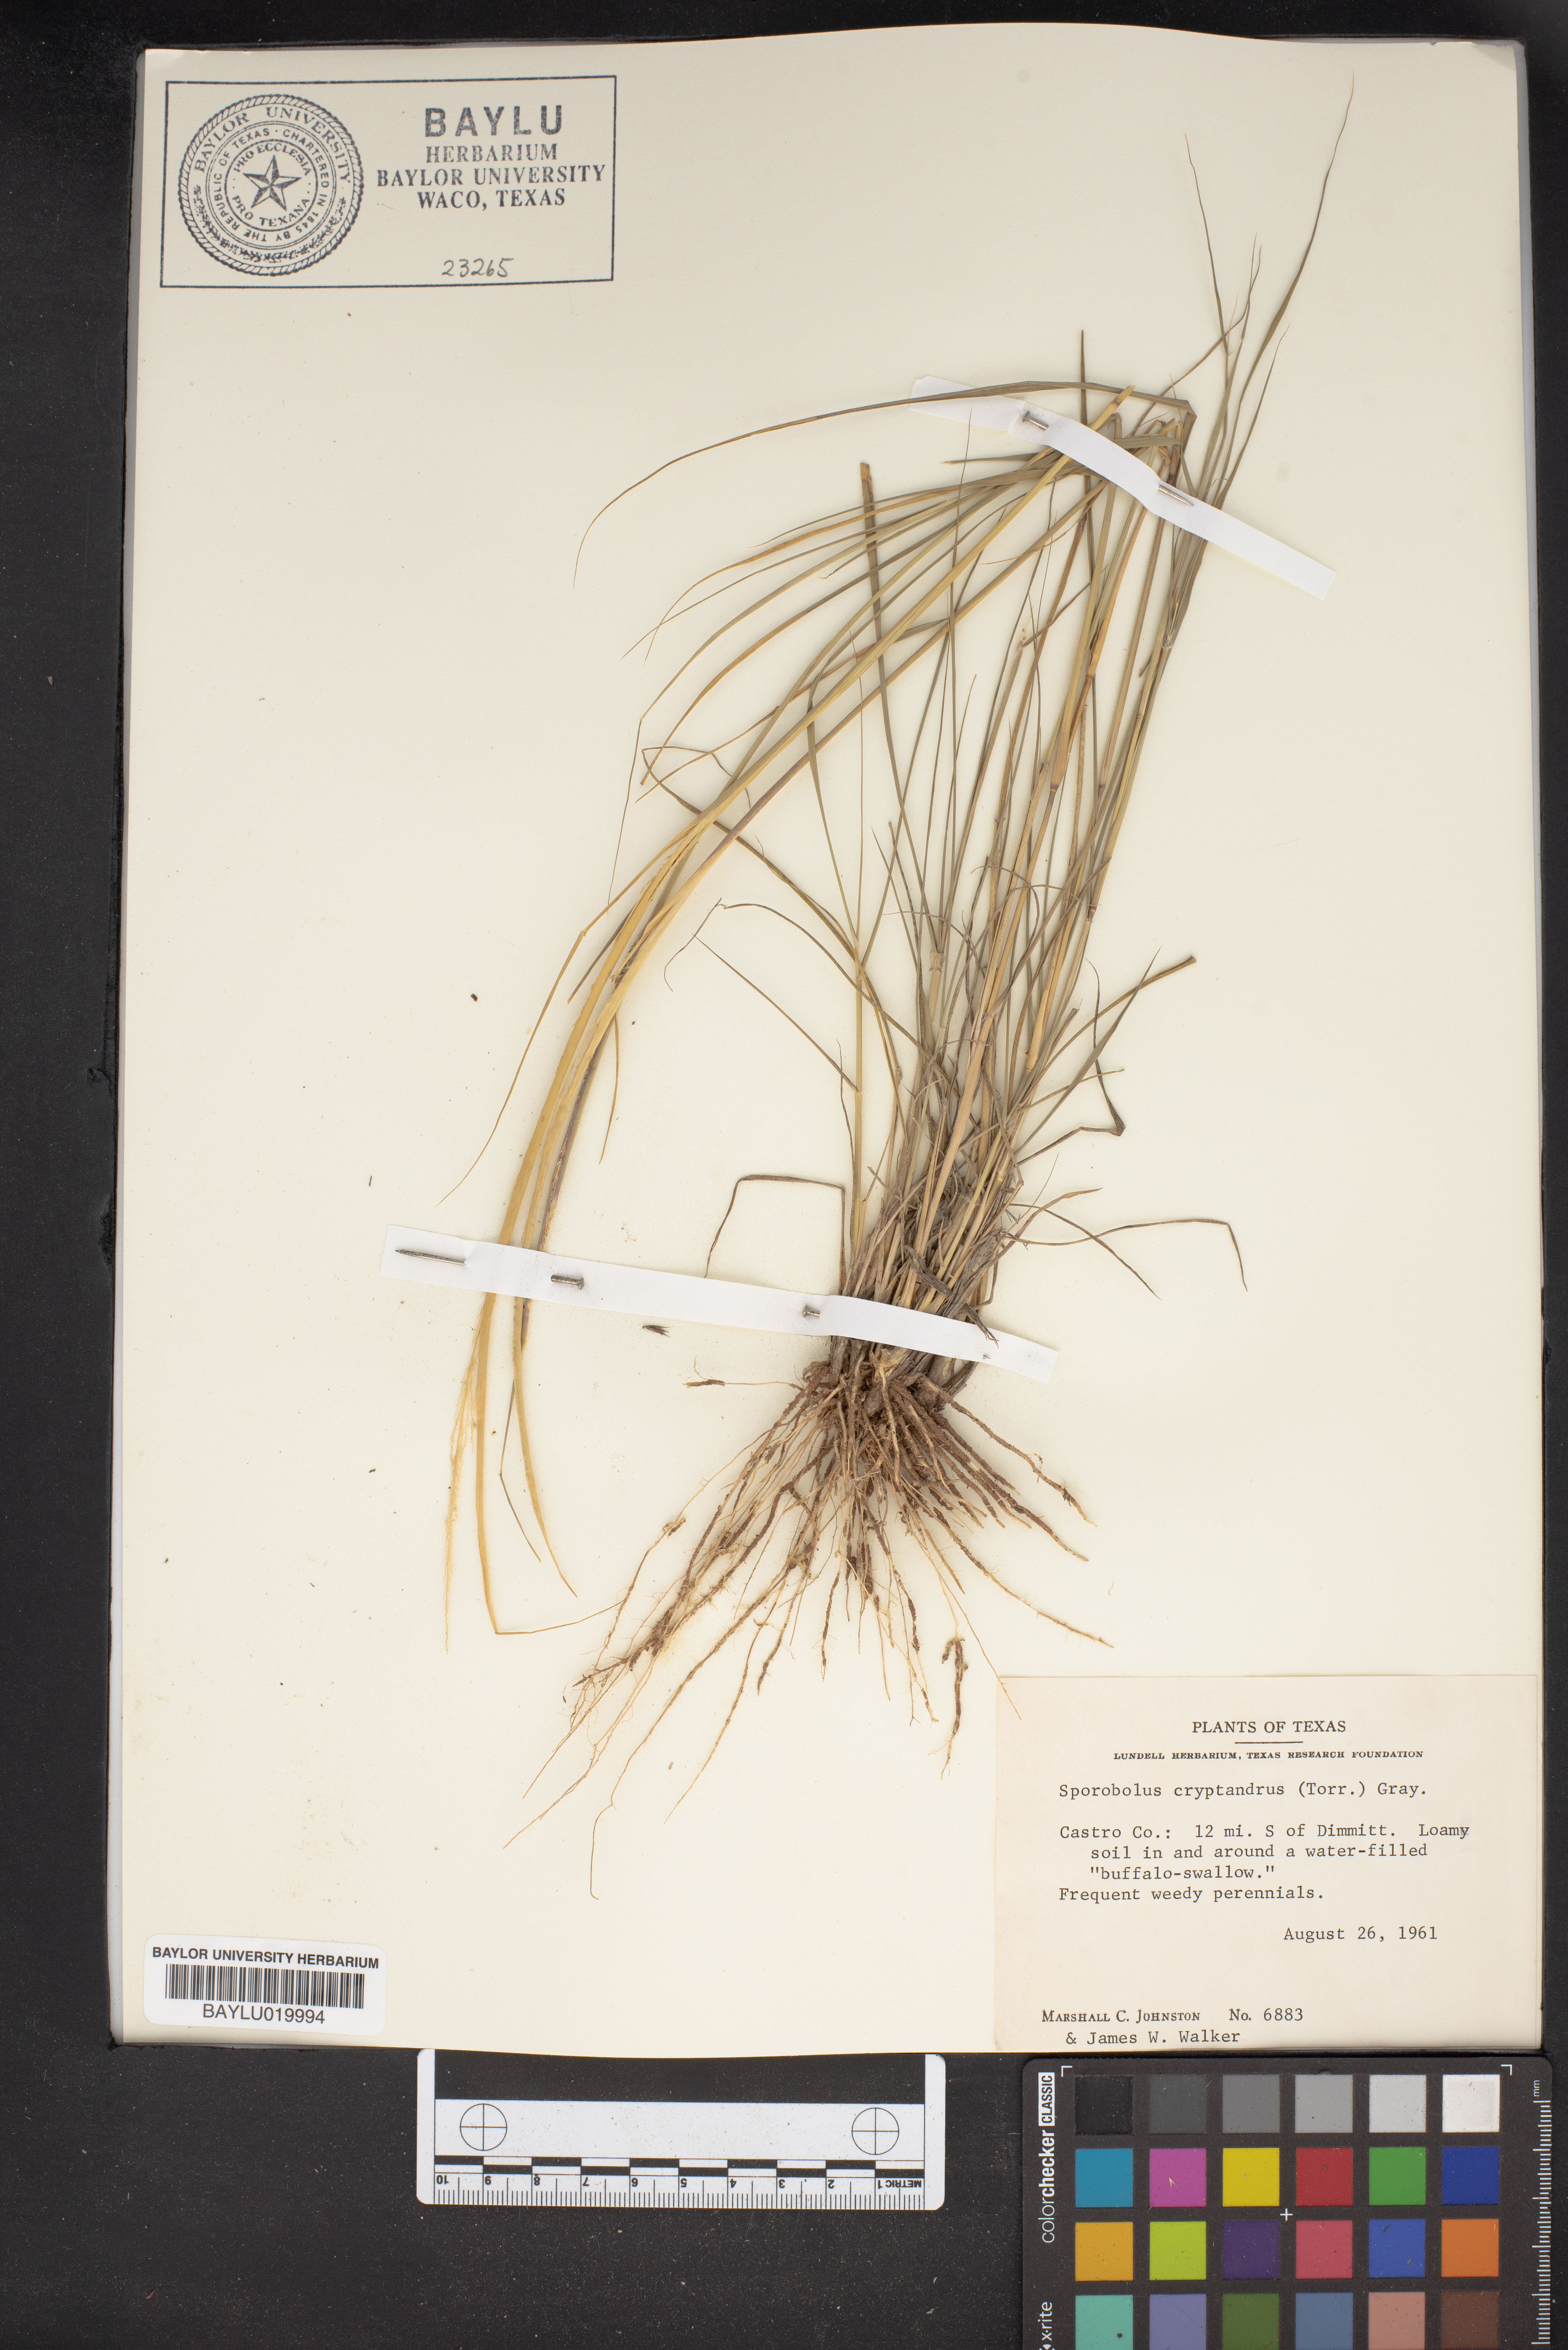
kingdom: Plantae
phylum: Tracheophyta
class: Liliopsida
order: Poales
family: Poaceae
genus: Sporobolus
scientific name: Sporobolus cryptandrus
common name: Sand dropseed
